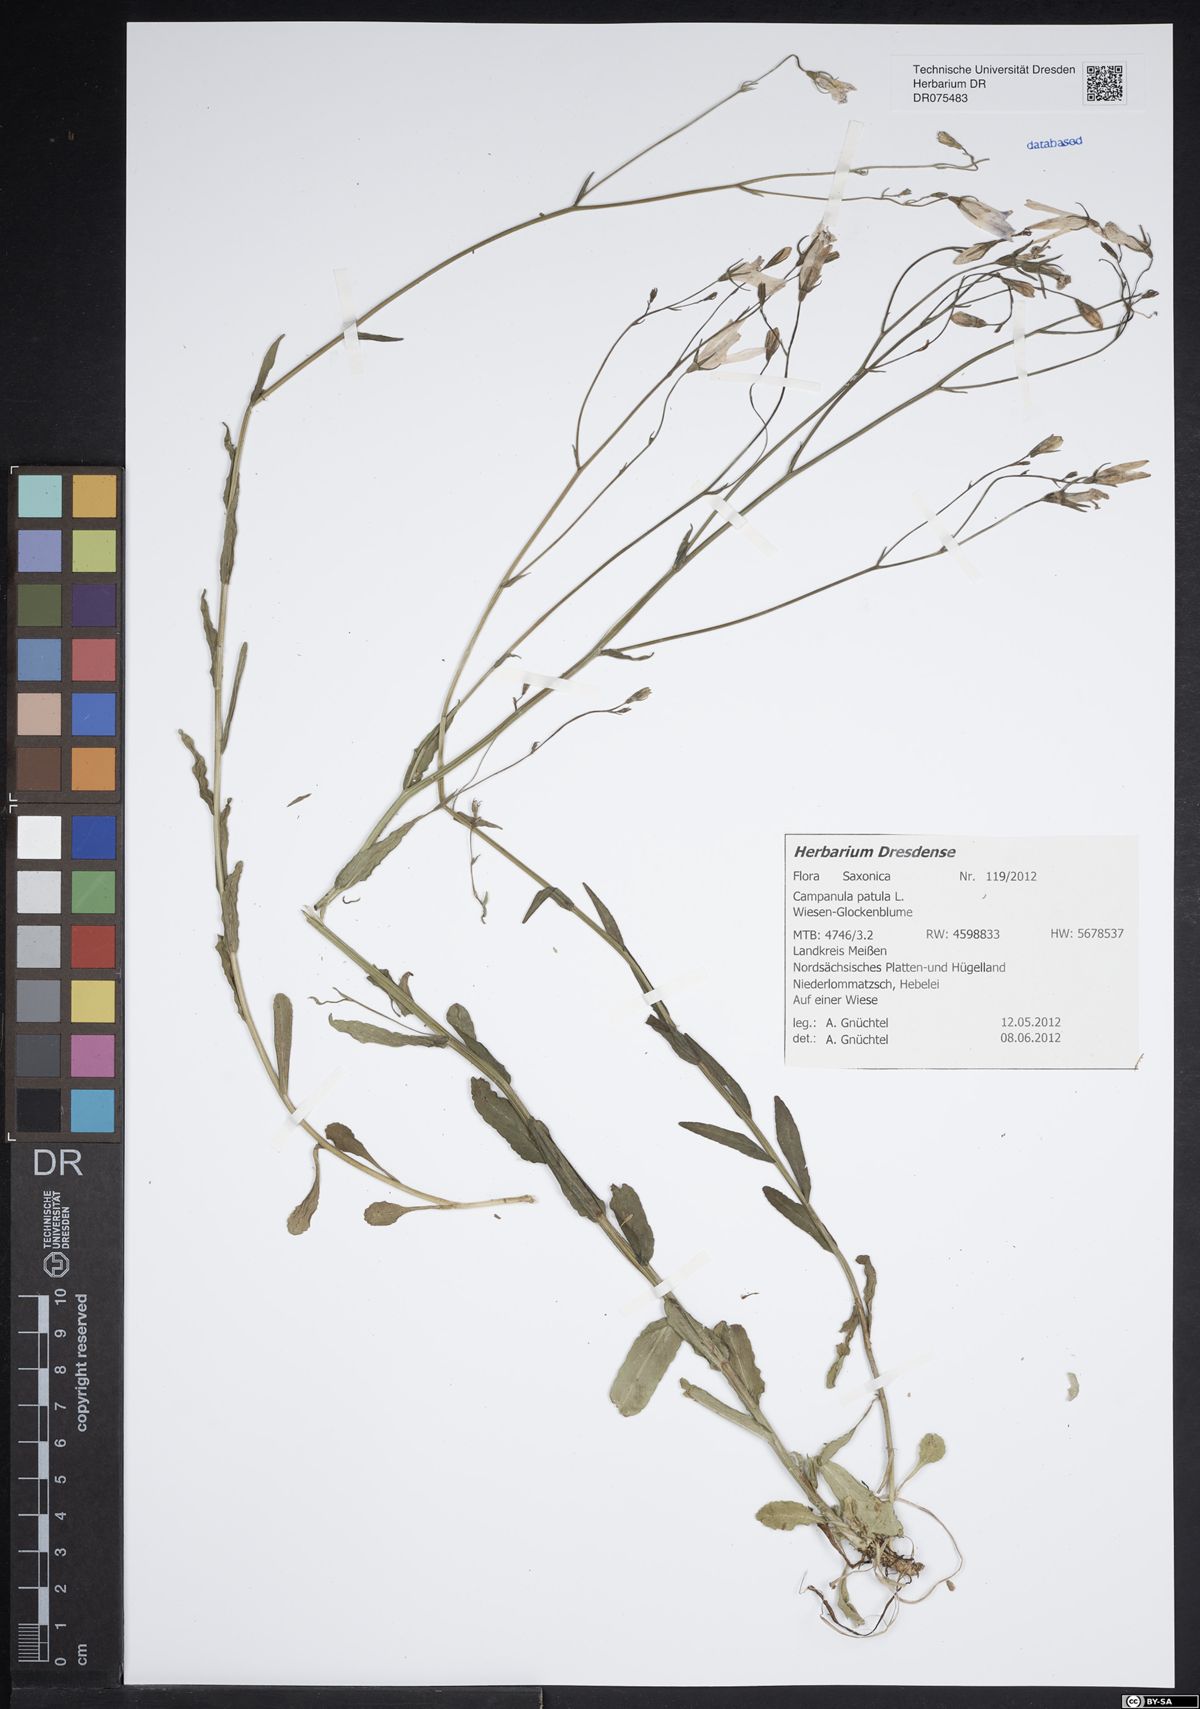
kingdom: Plantae
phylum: Tracheophyta
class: Magnoliopsida
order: Asterales
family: Campanulaceae
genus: Campanula
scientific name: Campanula patula
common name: Spreading bellflower
